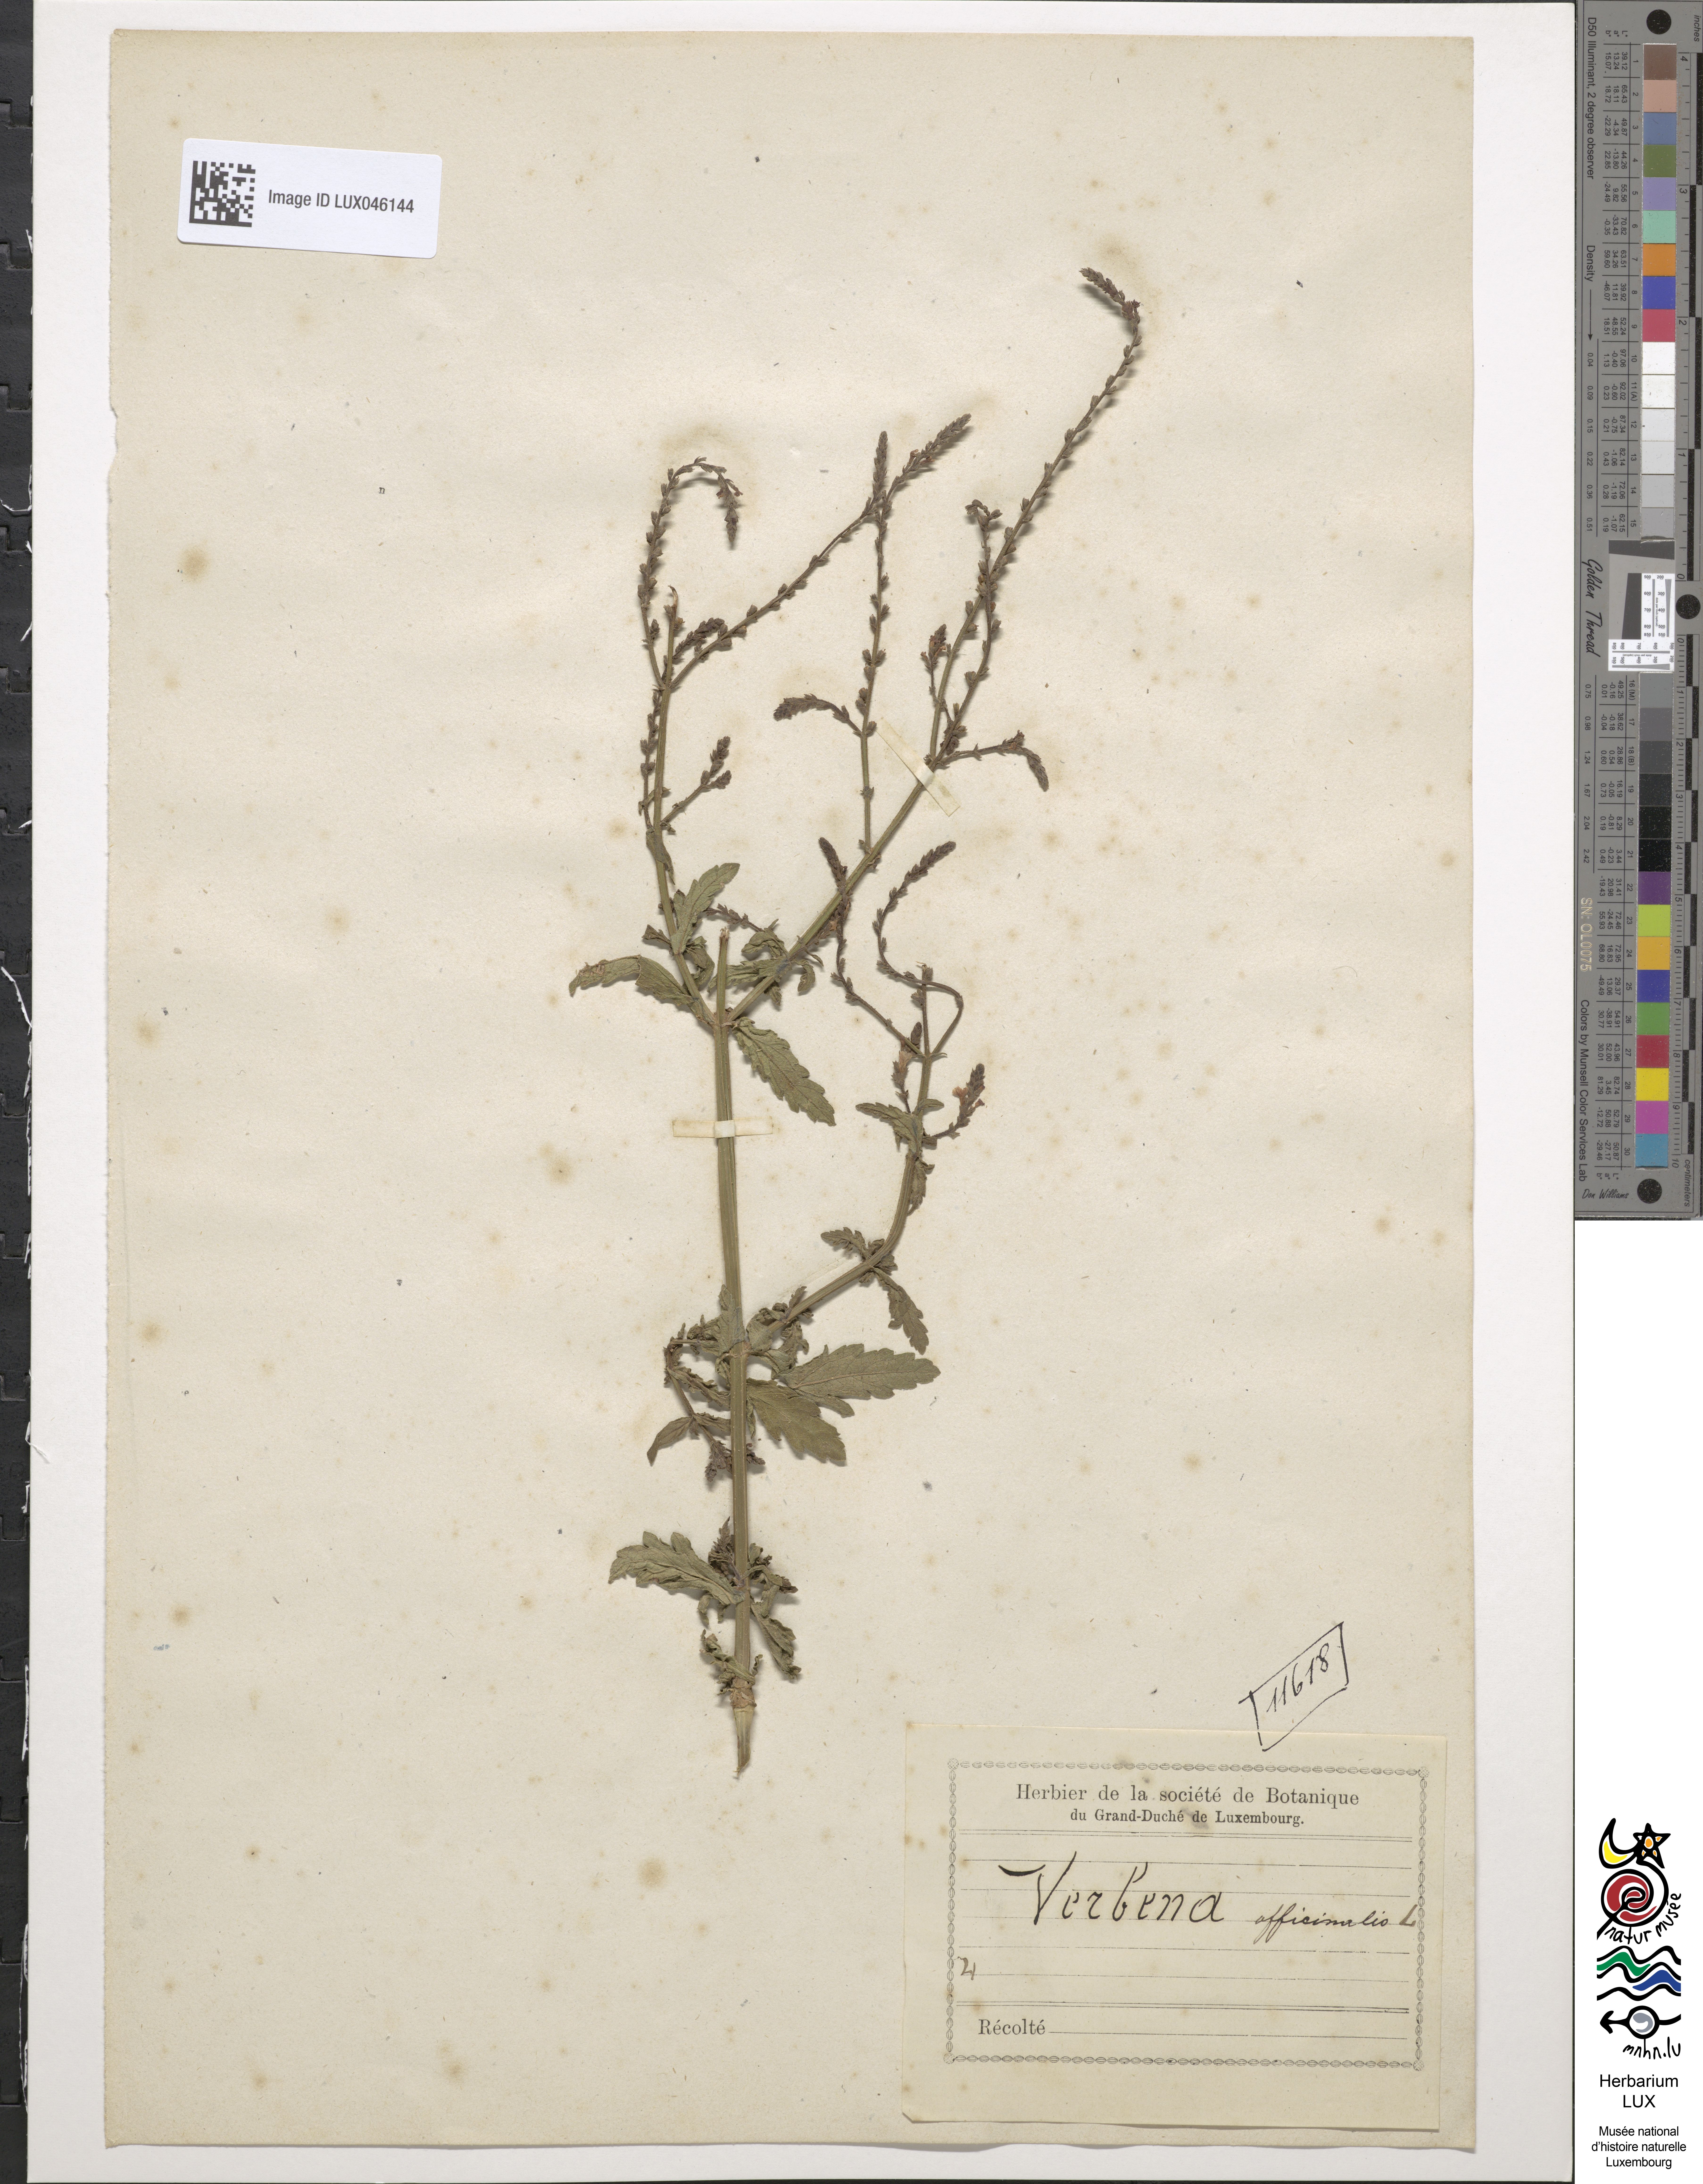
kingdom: Plantae
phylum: Tracheophyta
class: Magnoliopsida
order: Lamiales
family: Verbenaceae
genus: Verbena
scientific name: Verbena officinalis
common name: Vervain
